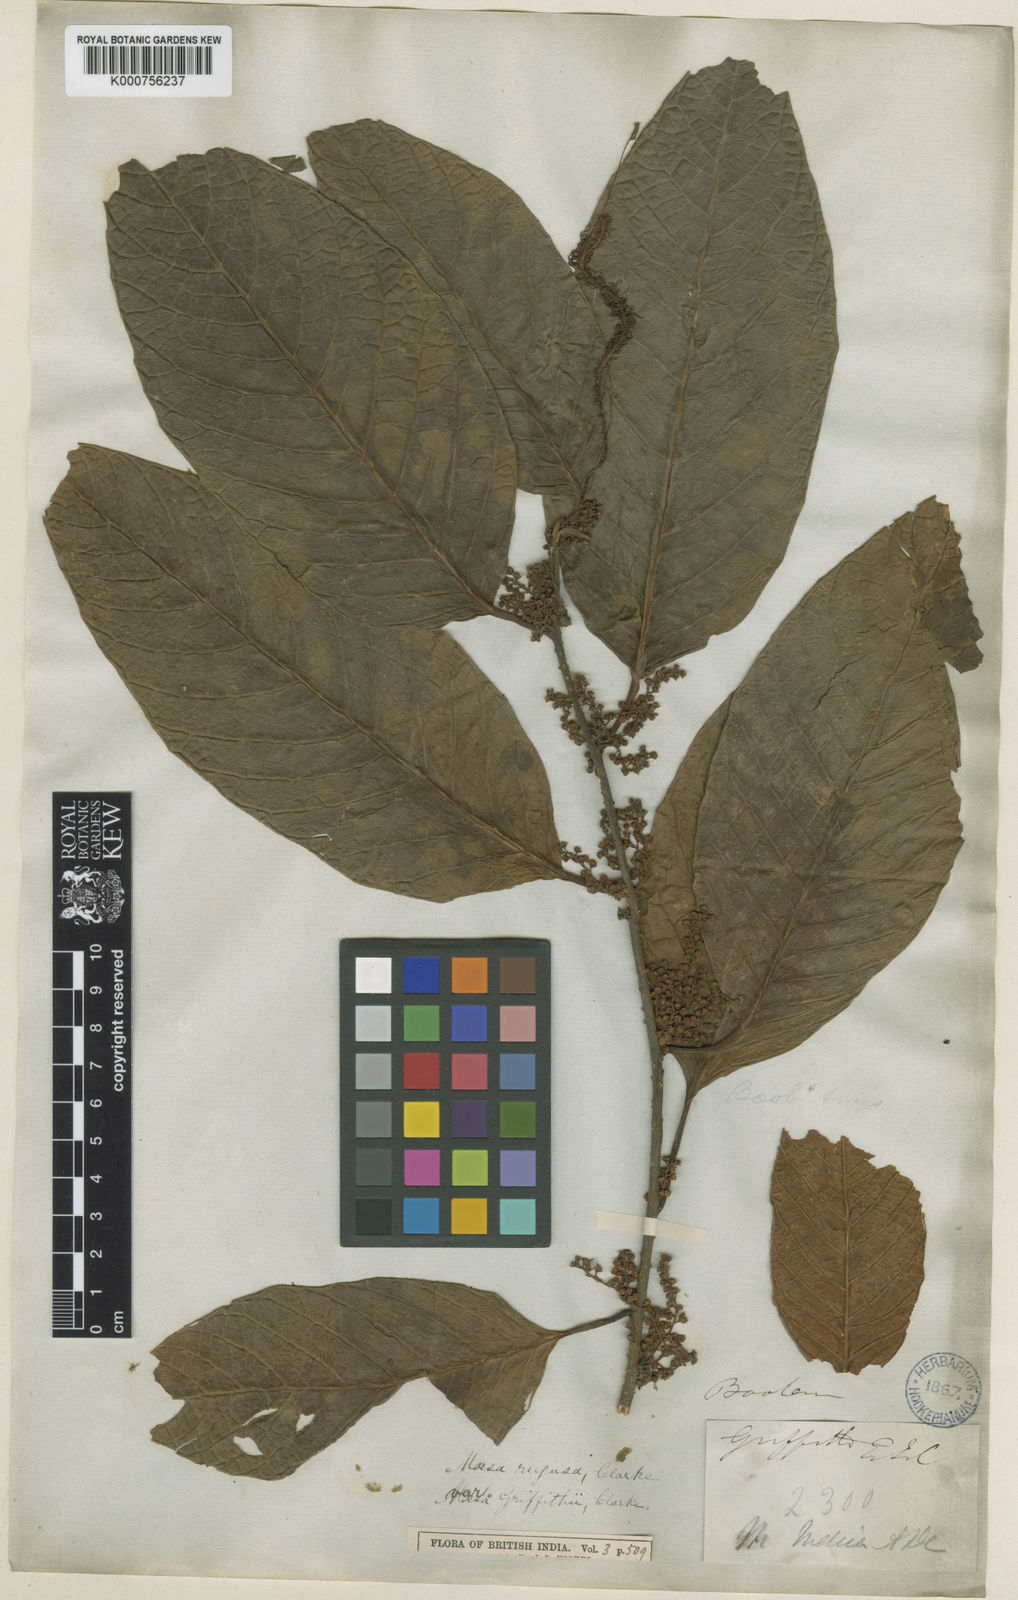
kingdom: Plantae
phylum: Tracheophyta
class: Magnoliopsida
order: Ericales
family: Primulaceae
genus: Maesa
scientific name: Maesa rugosa
